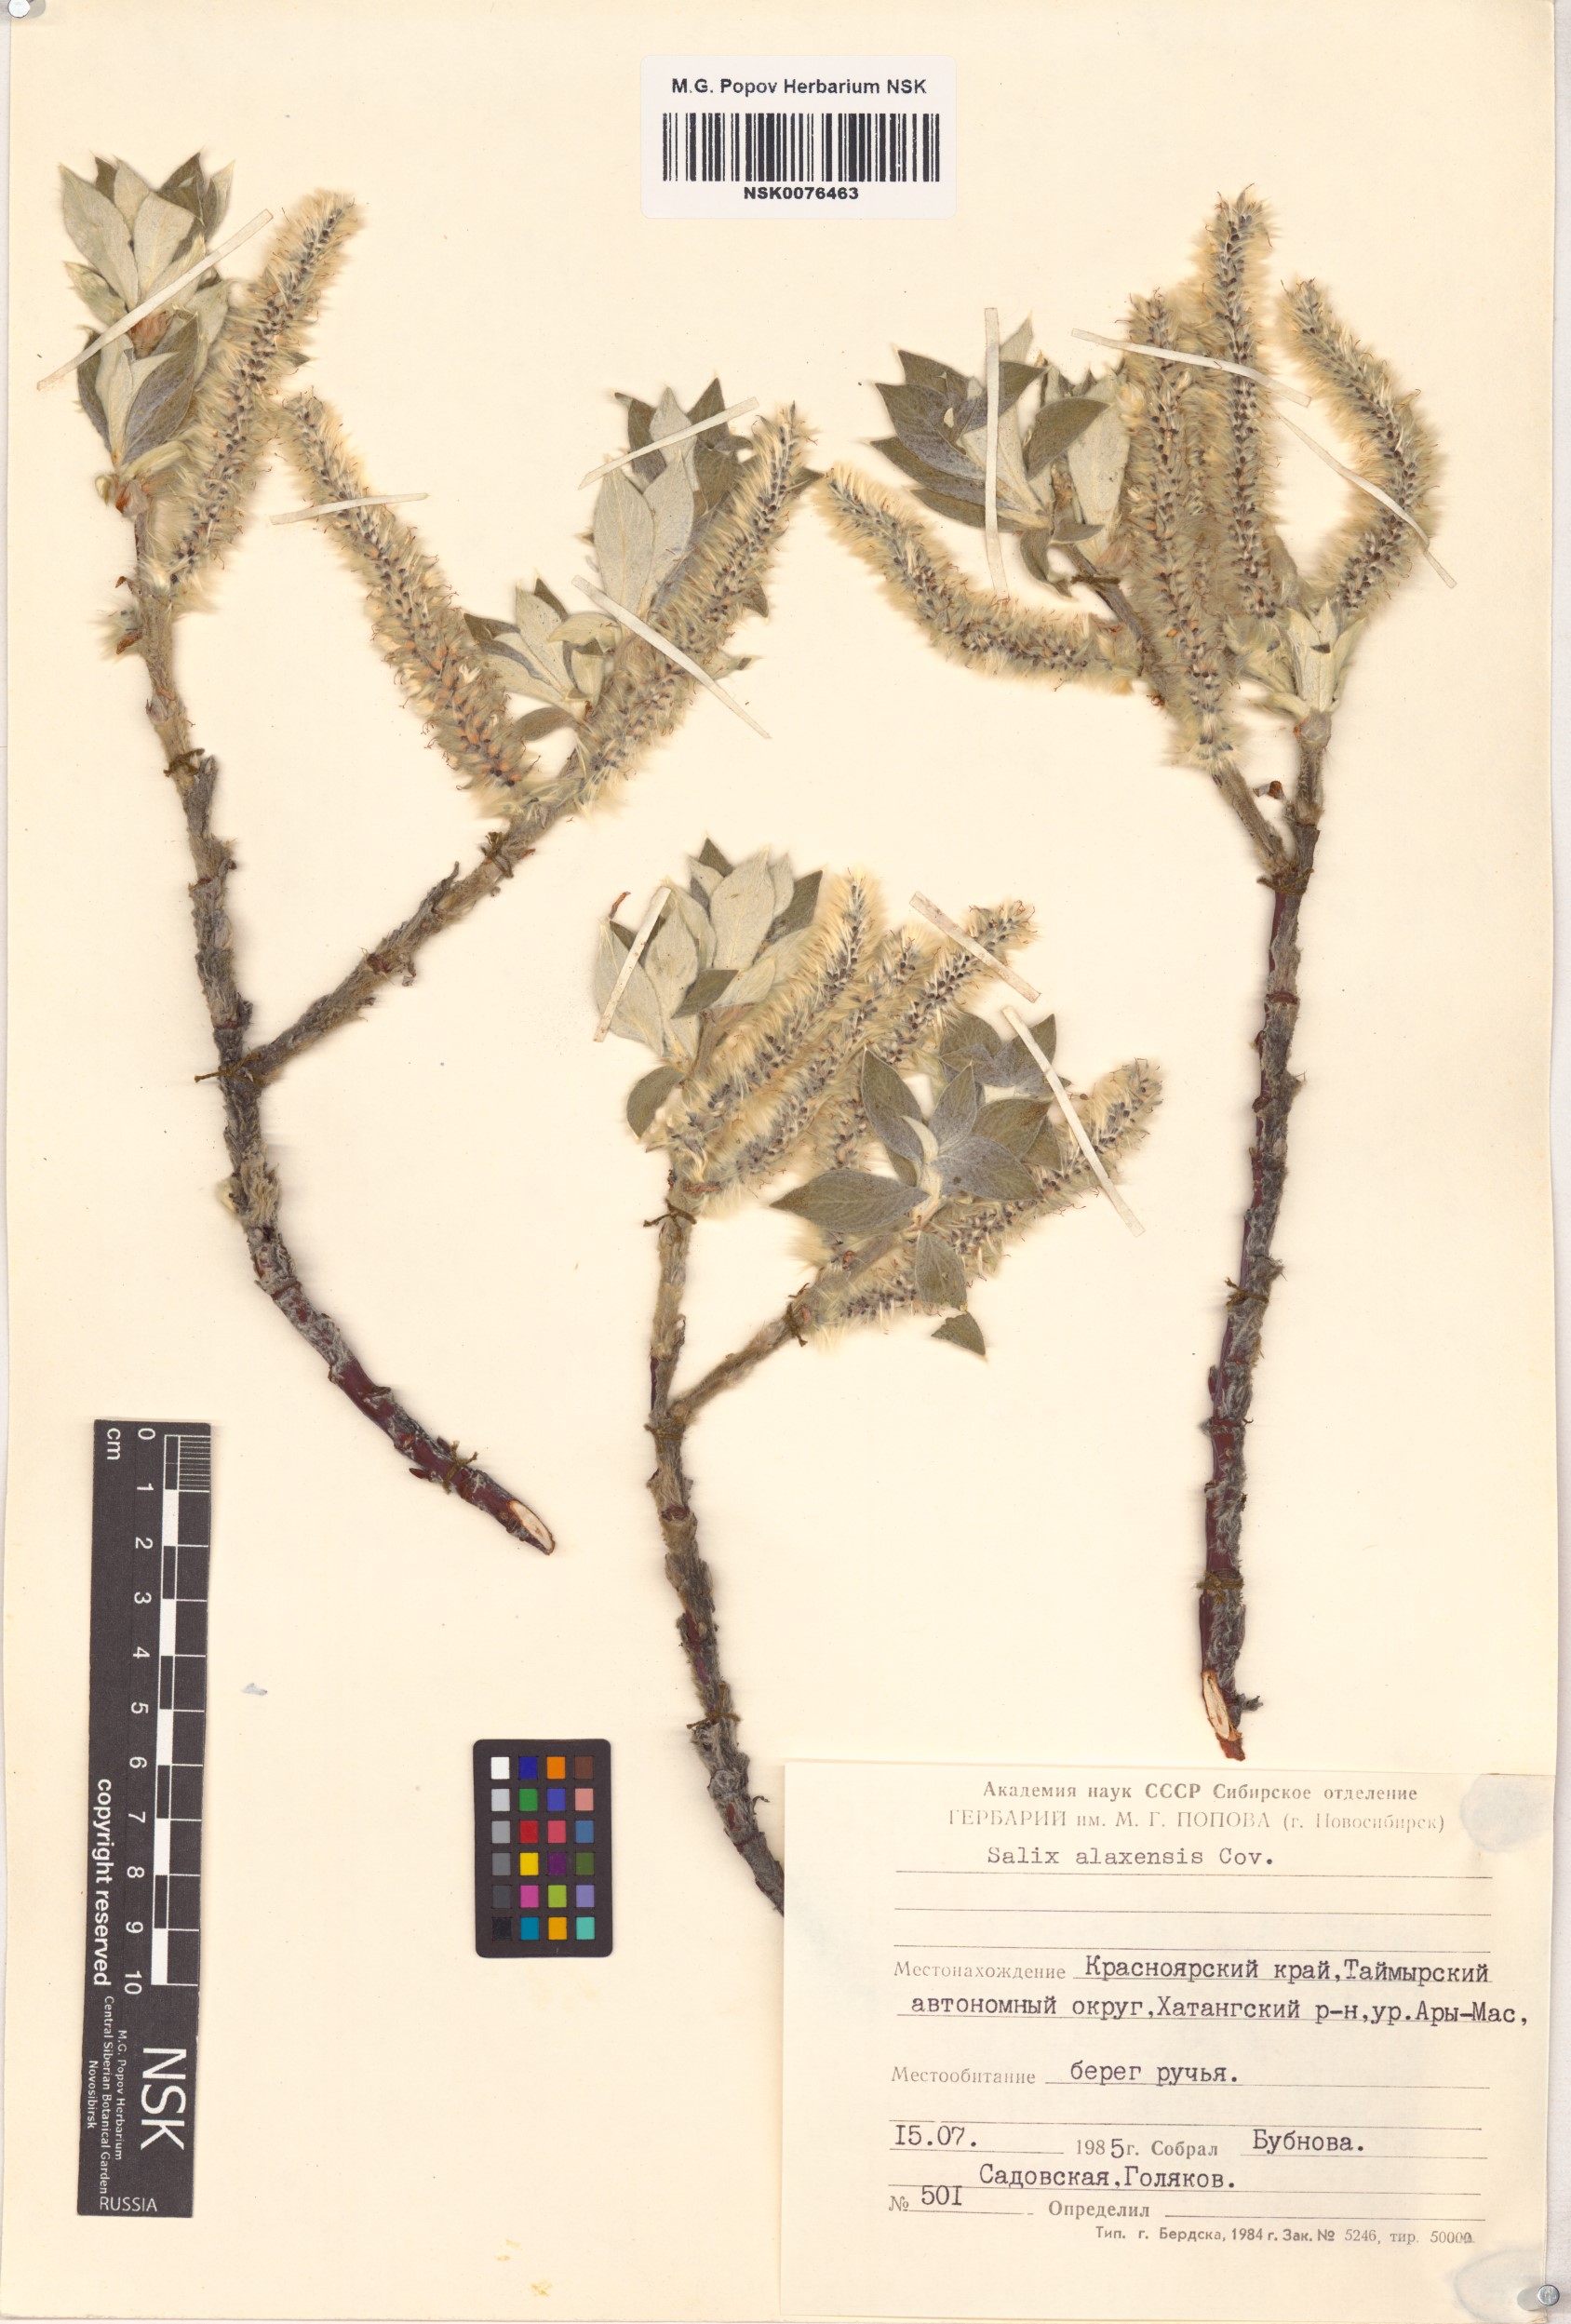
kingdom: Plantae
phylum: Tracheophyta
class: Magnoliopsida
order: Malpighiales
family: Salicaceae
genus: Salix
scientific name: Salix alaxensis
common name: Feltleaf willow
